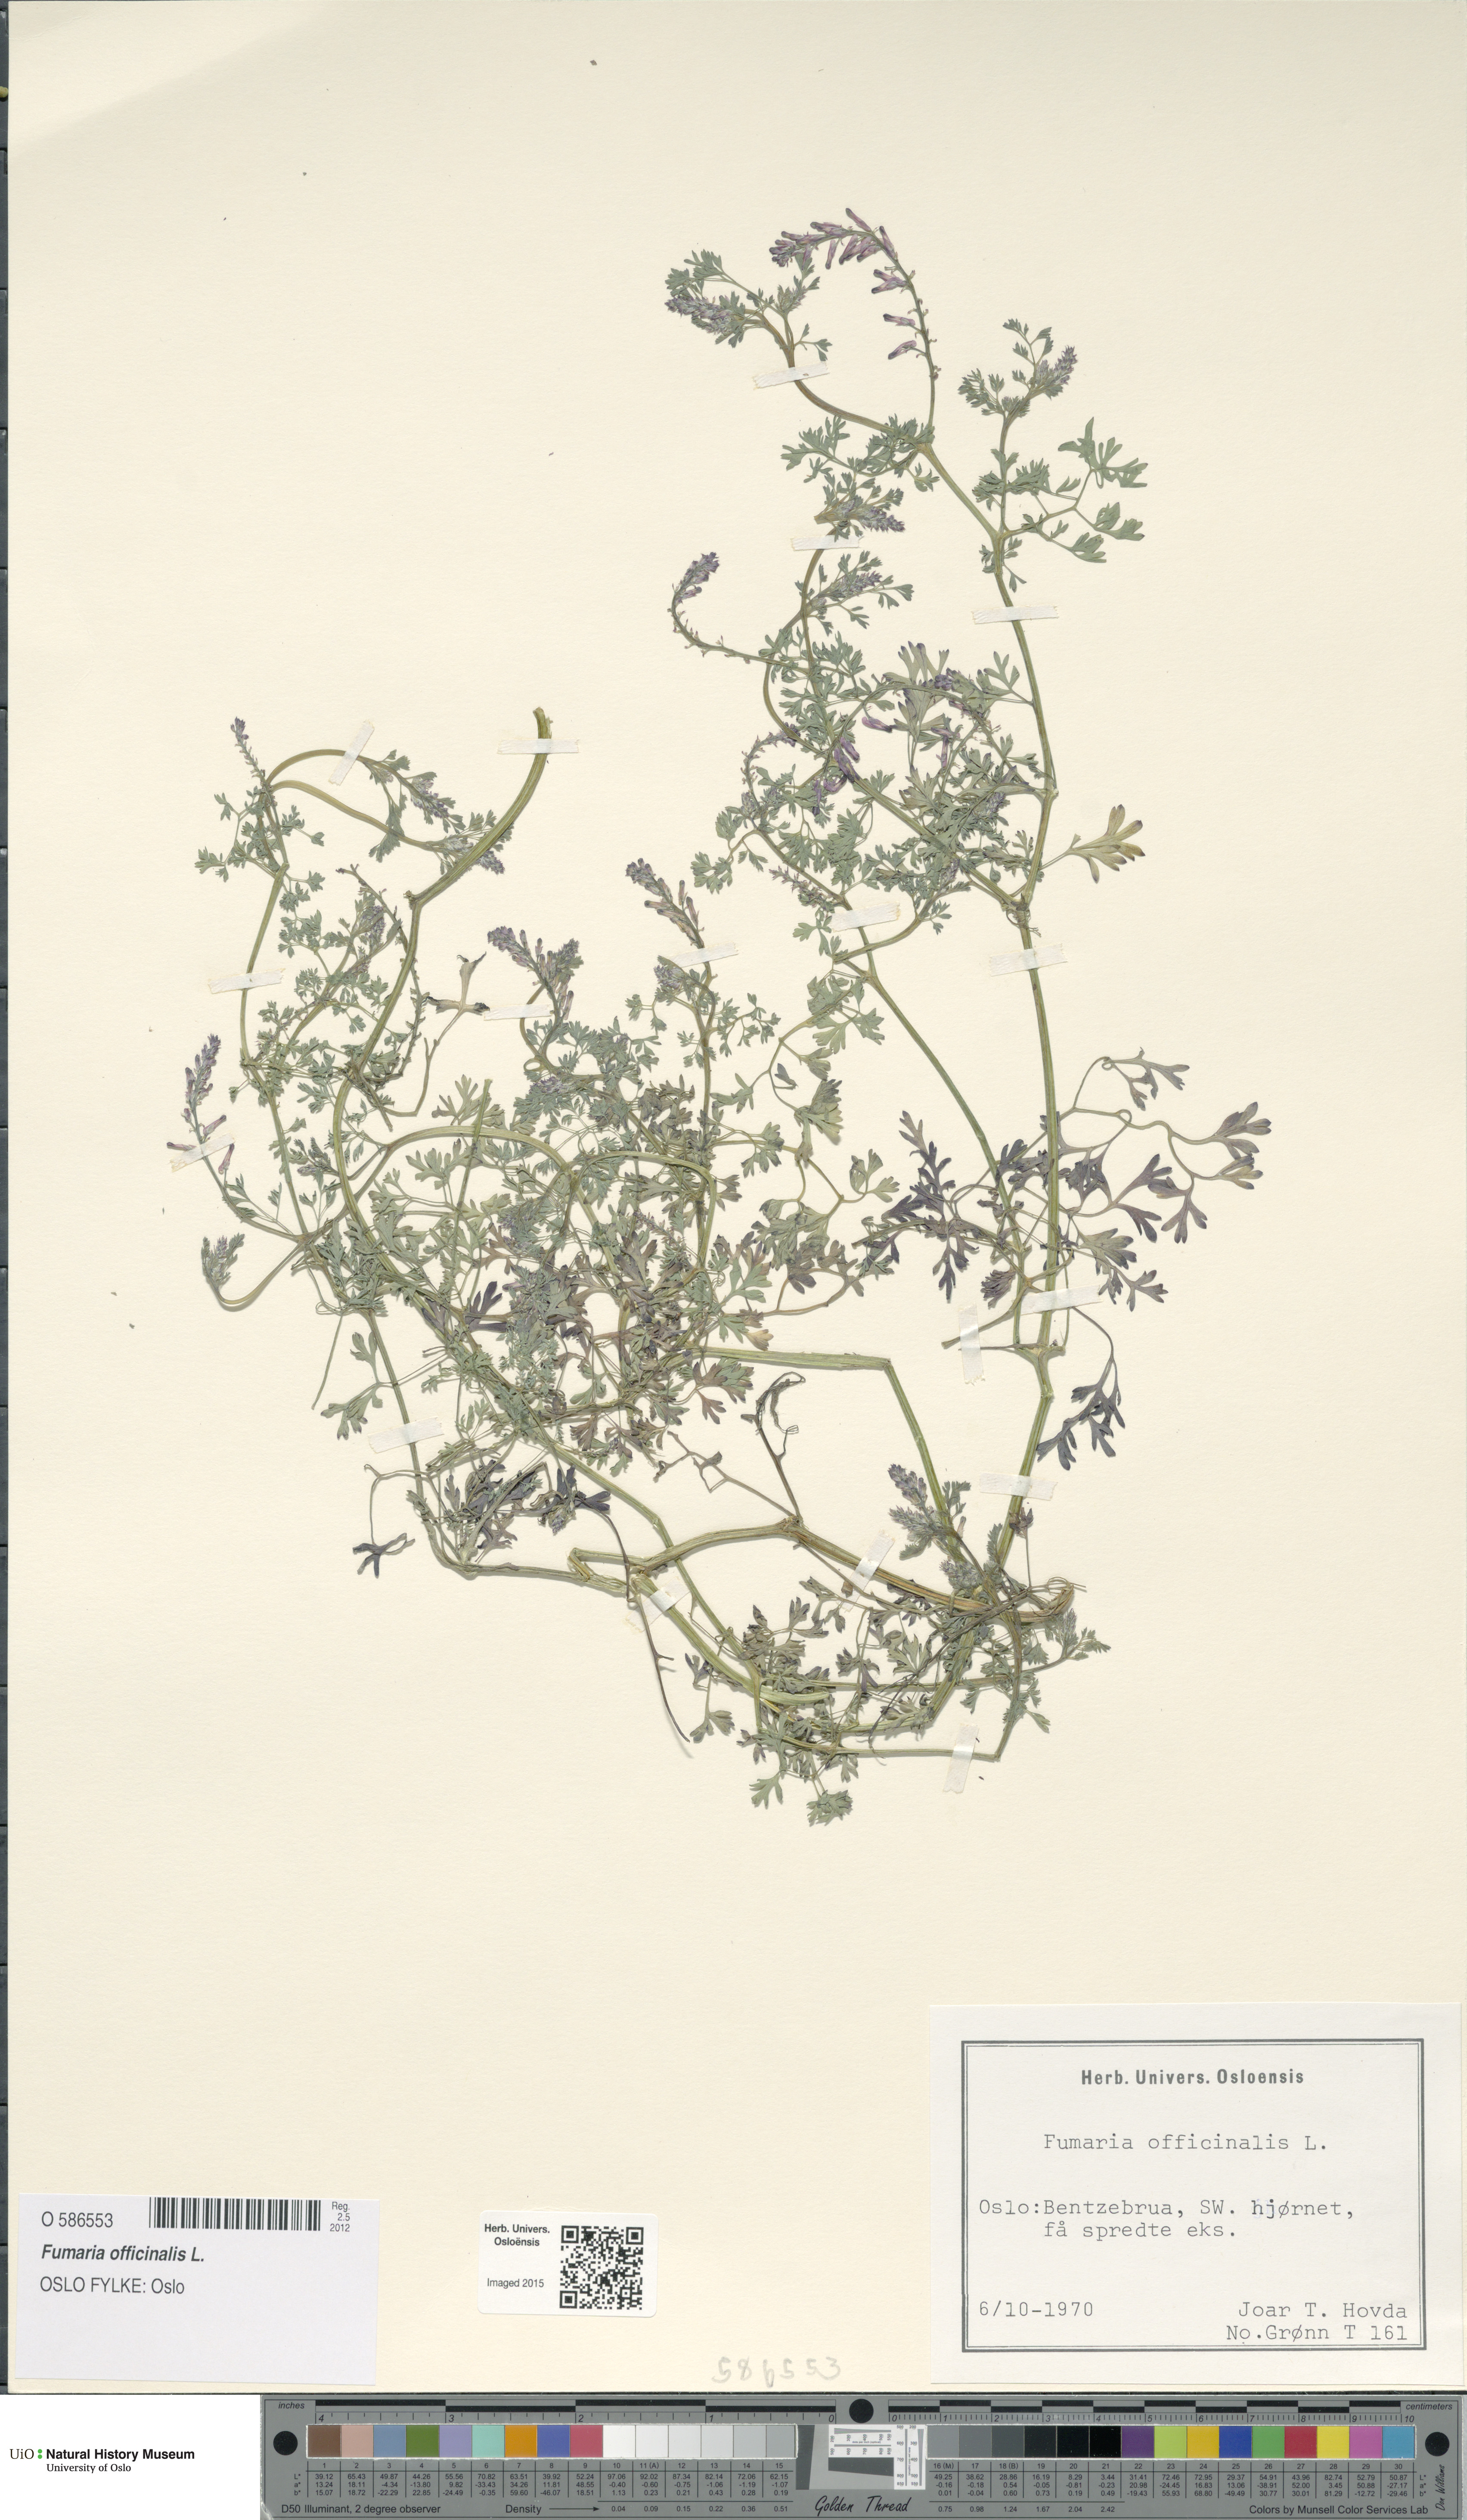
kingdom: Plantae
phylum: Tracheophyta
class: Magnoliopsida
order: Ranunculales
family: Papaveraceae
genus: Fumaria
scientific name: Fumaria officinalis
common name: Common fumitory
